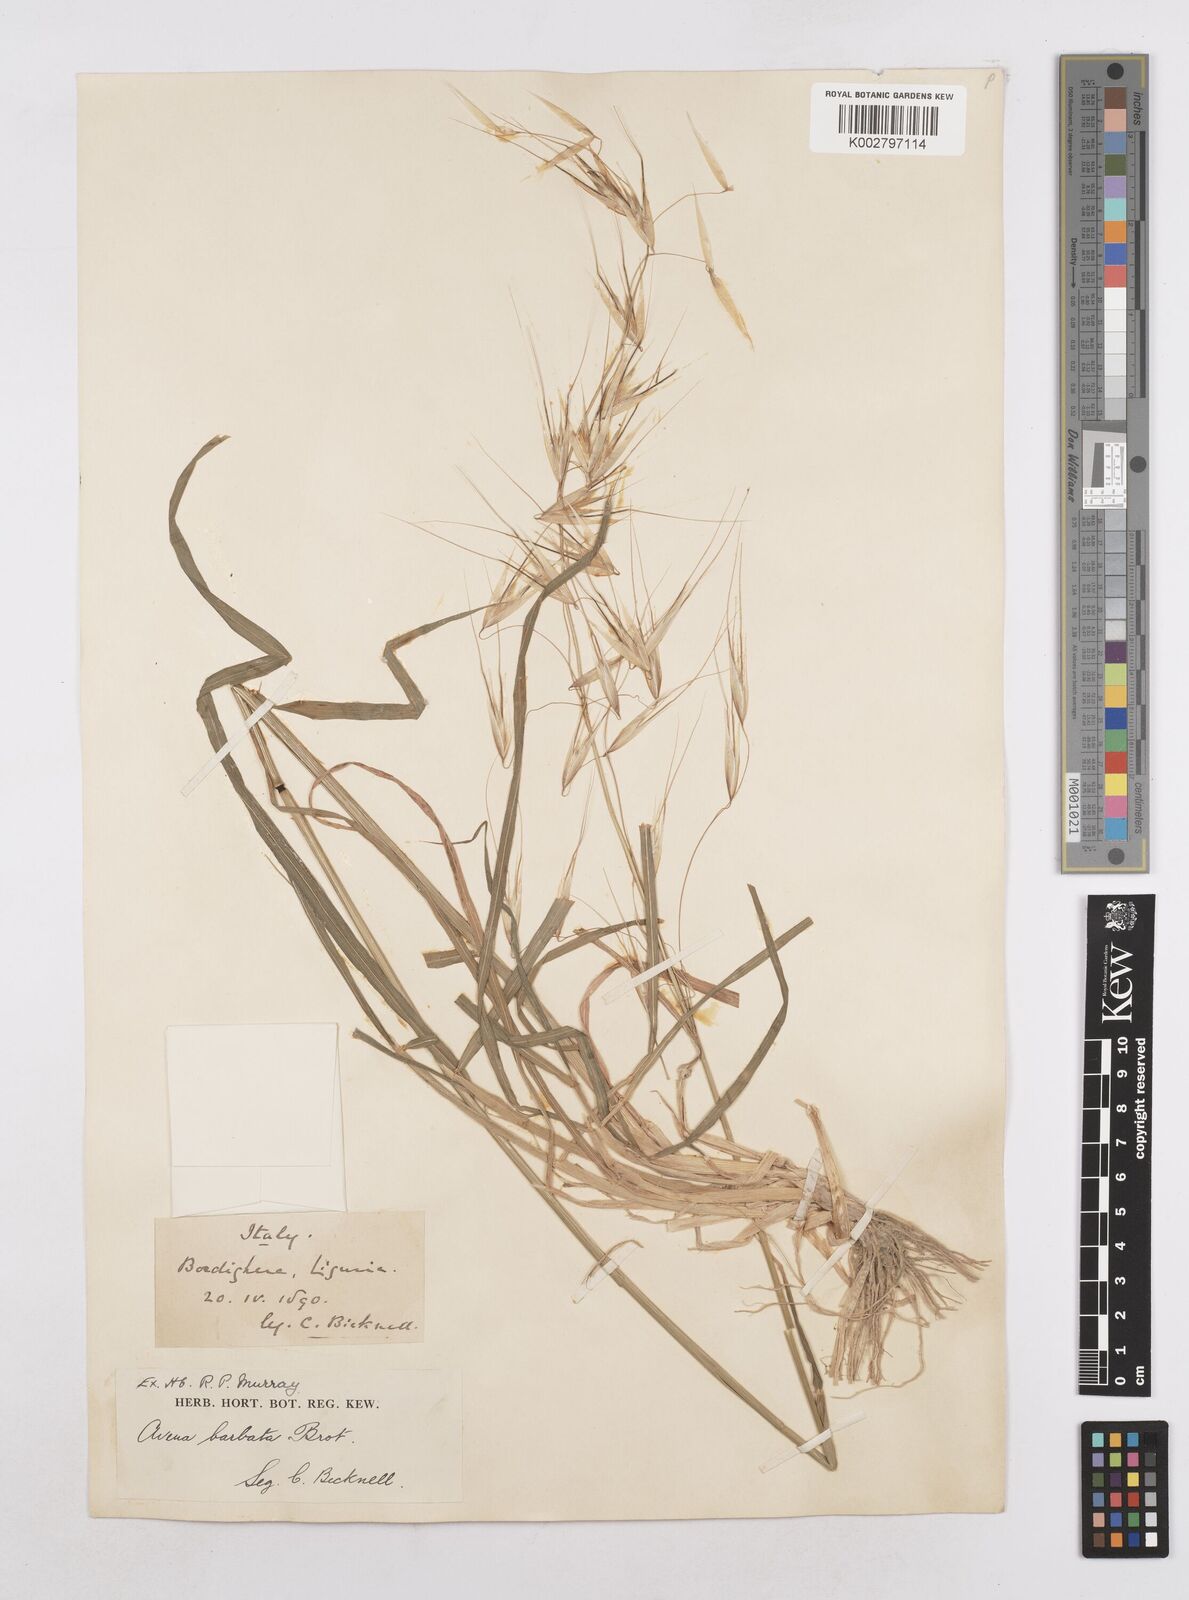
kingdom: Plantae
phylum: Tracheophyta
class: Liliopsida
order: Poales
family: Poaceae
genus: Avena
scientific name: Avena
